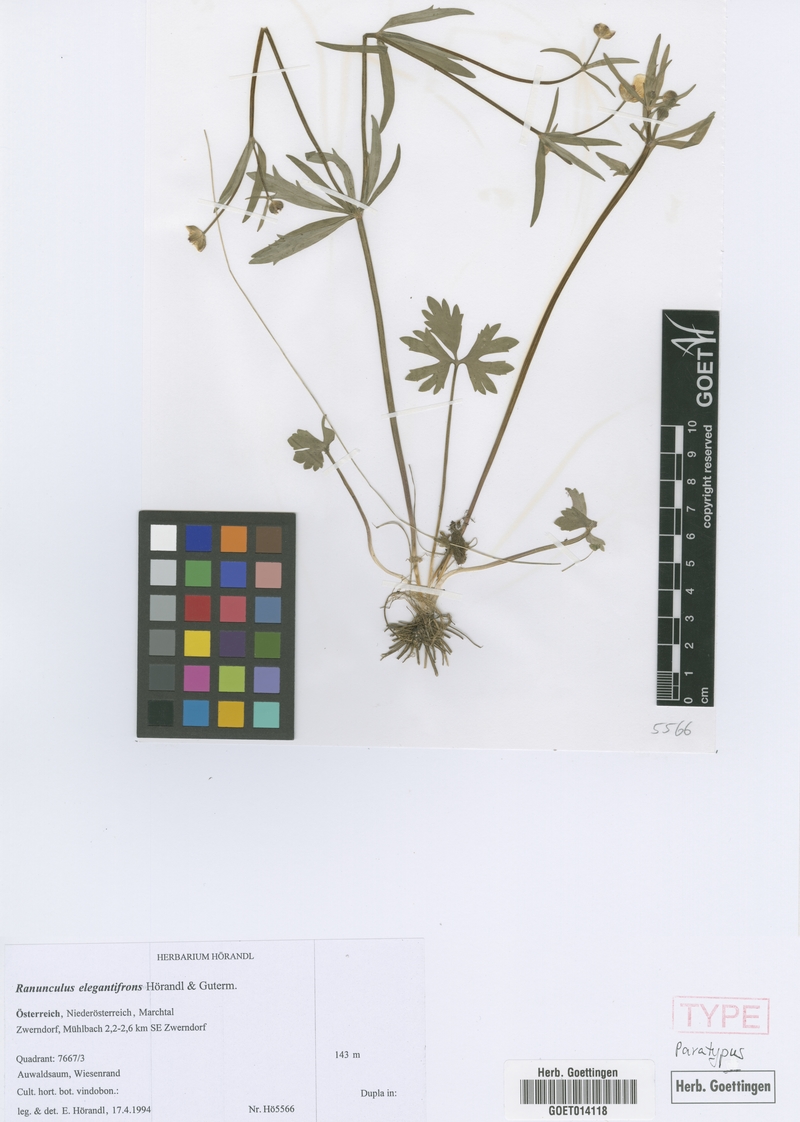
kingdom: Plantae
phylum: Tracheophyta
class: Magnoliopsida
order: Ranunculales
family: Ranunculaceae
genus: Ranunculus
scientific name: Ranunculus elegantifrons
